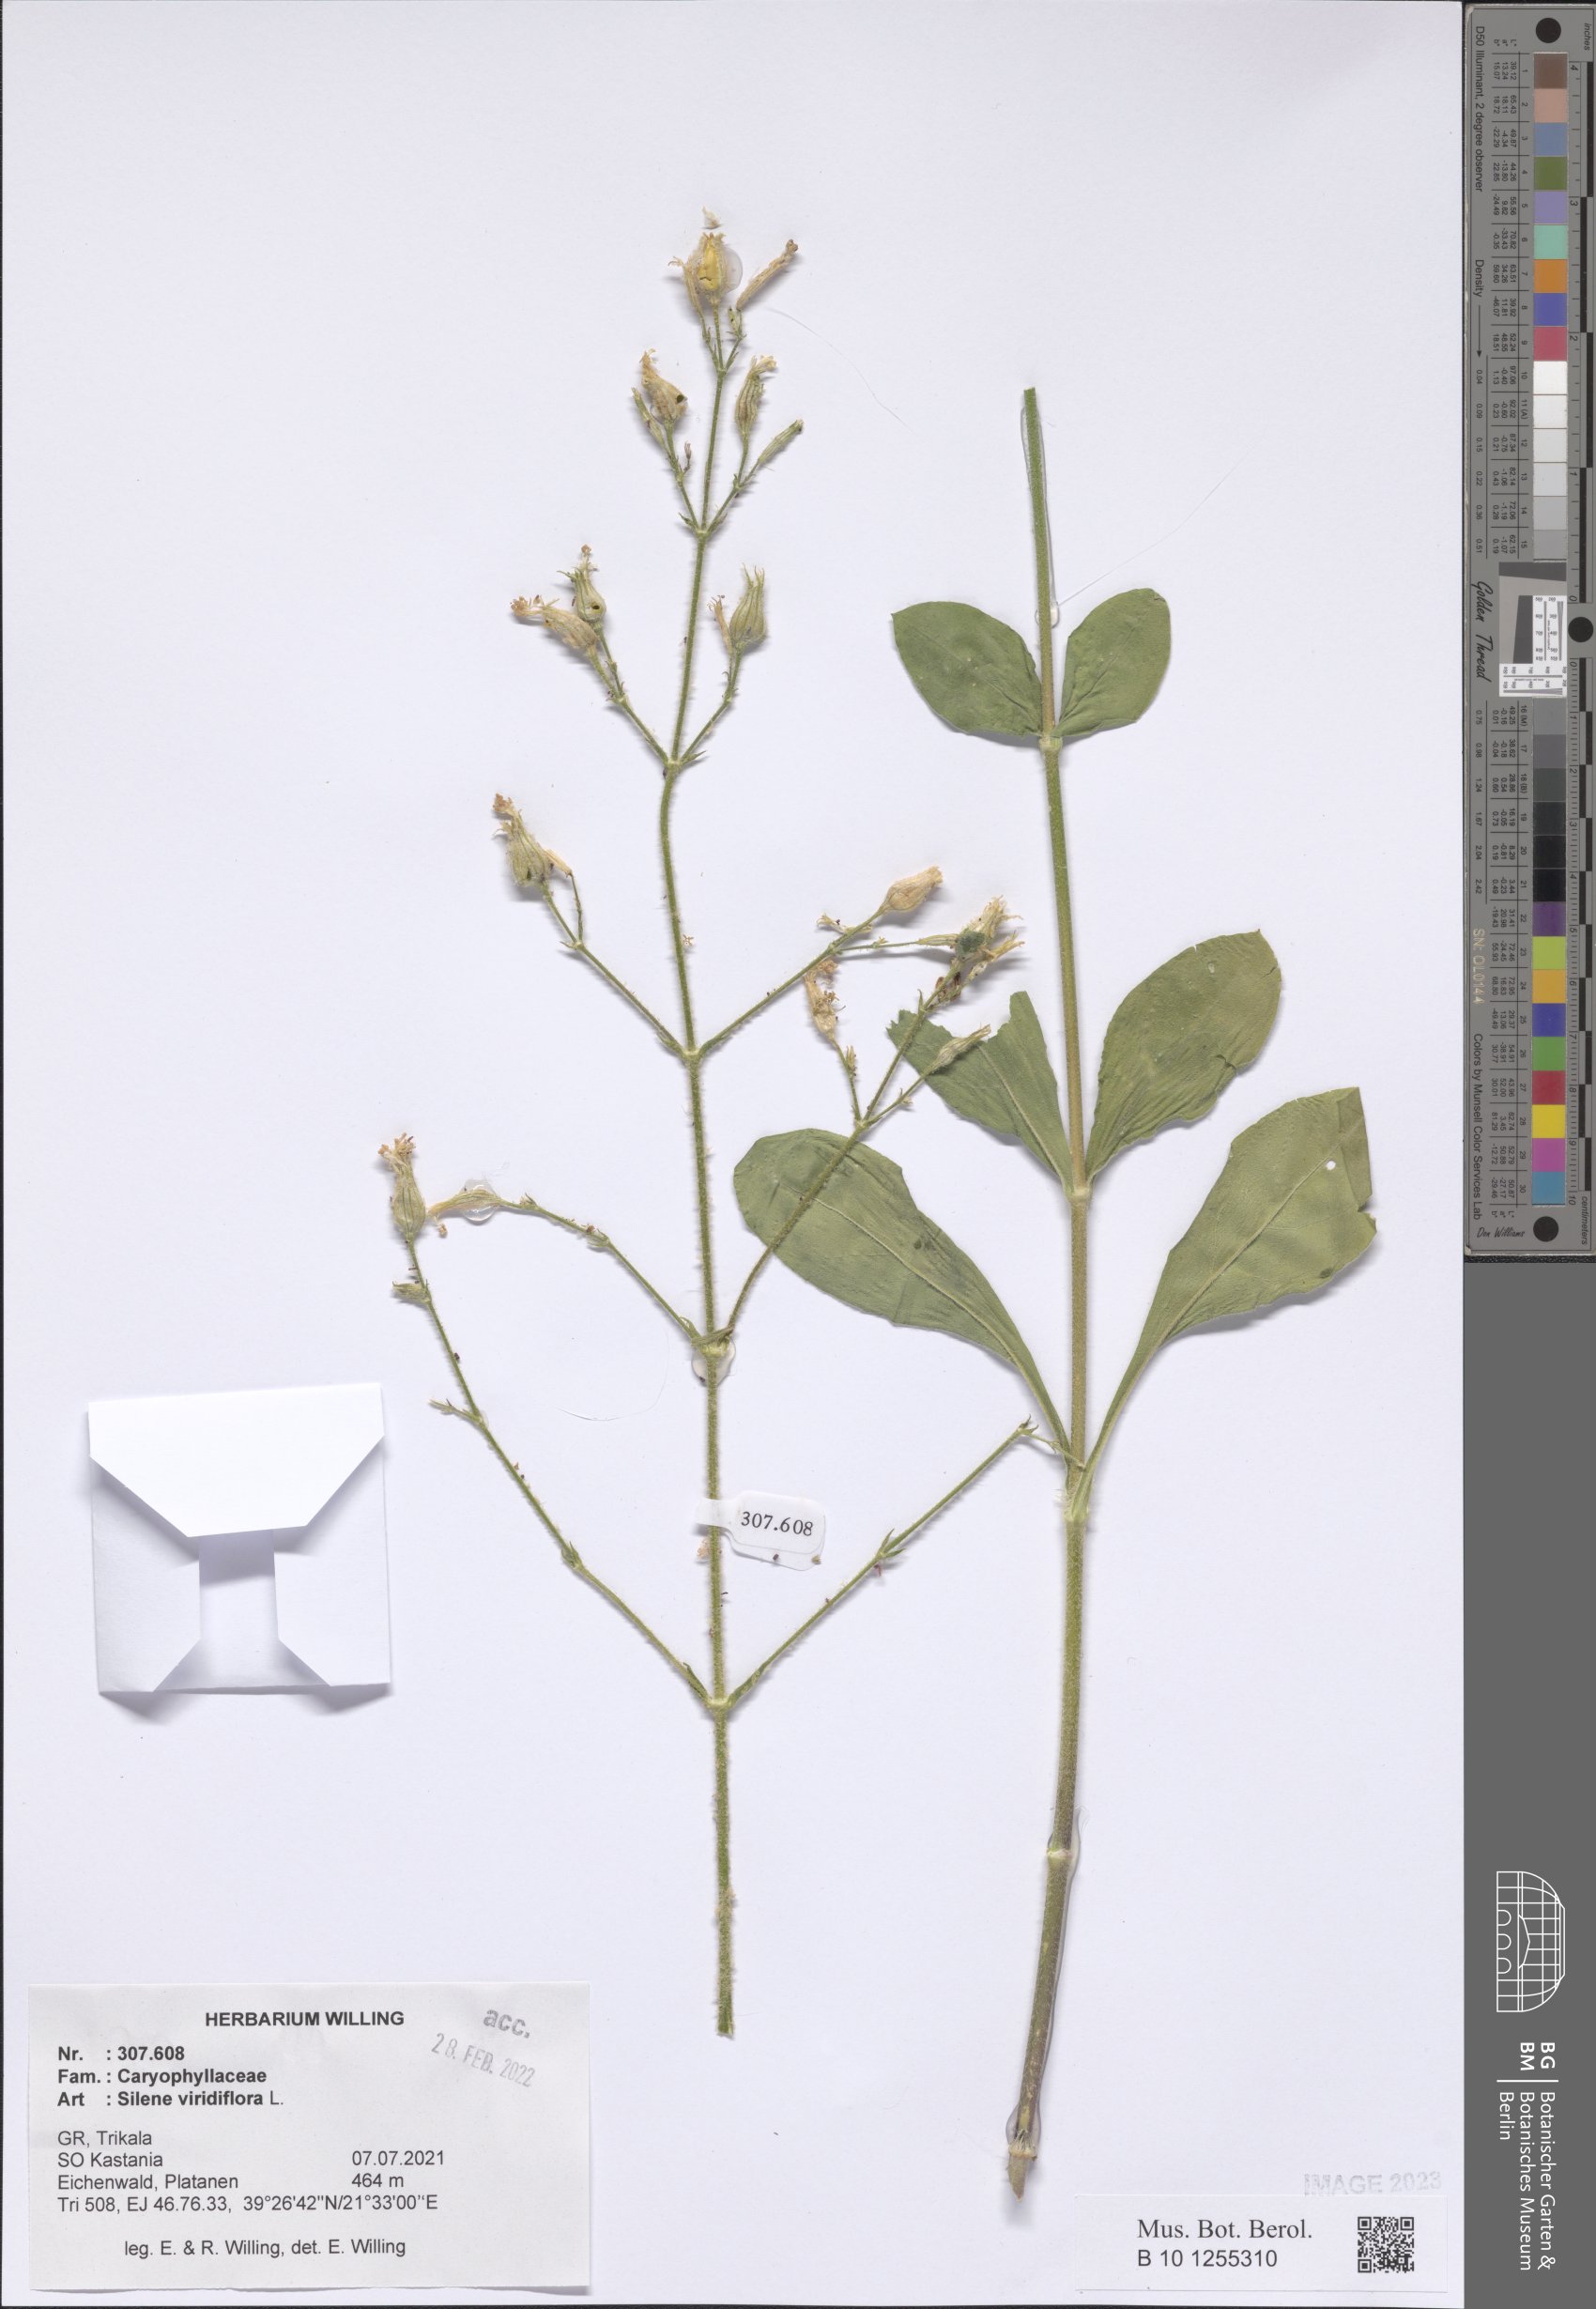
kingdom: Plantae
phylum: Tracheophyta
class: Magnoliopsida
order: Caryophyllales
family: Caryophyllaceae
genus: Silene
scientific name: Silene viridiflora
